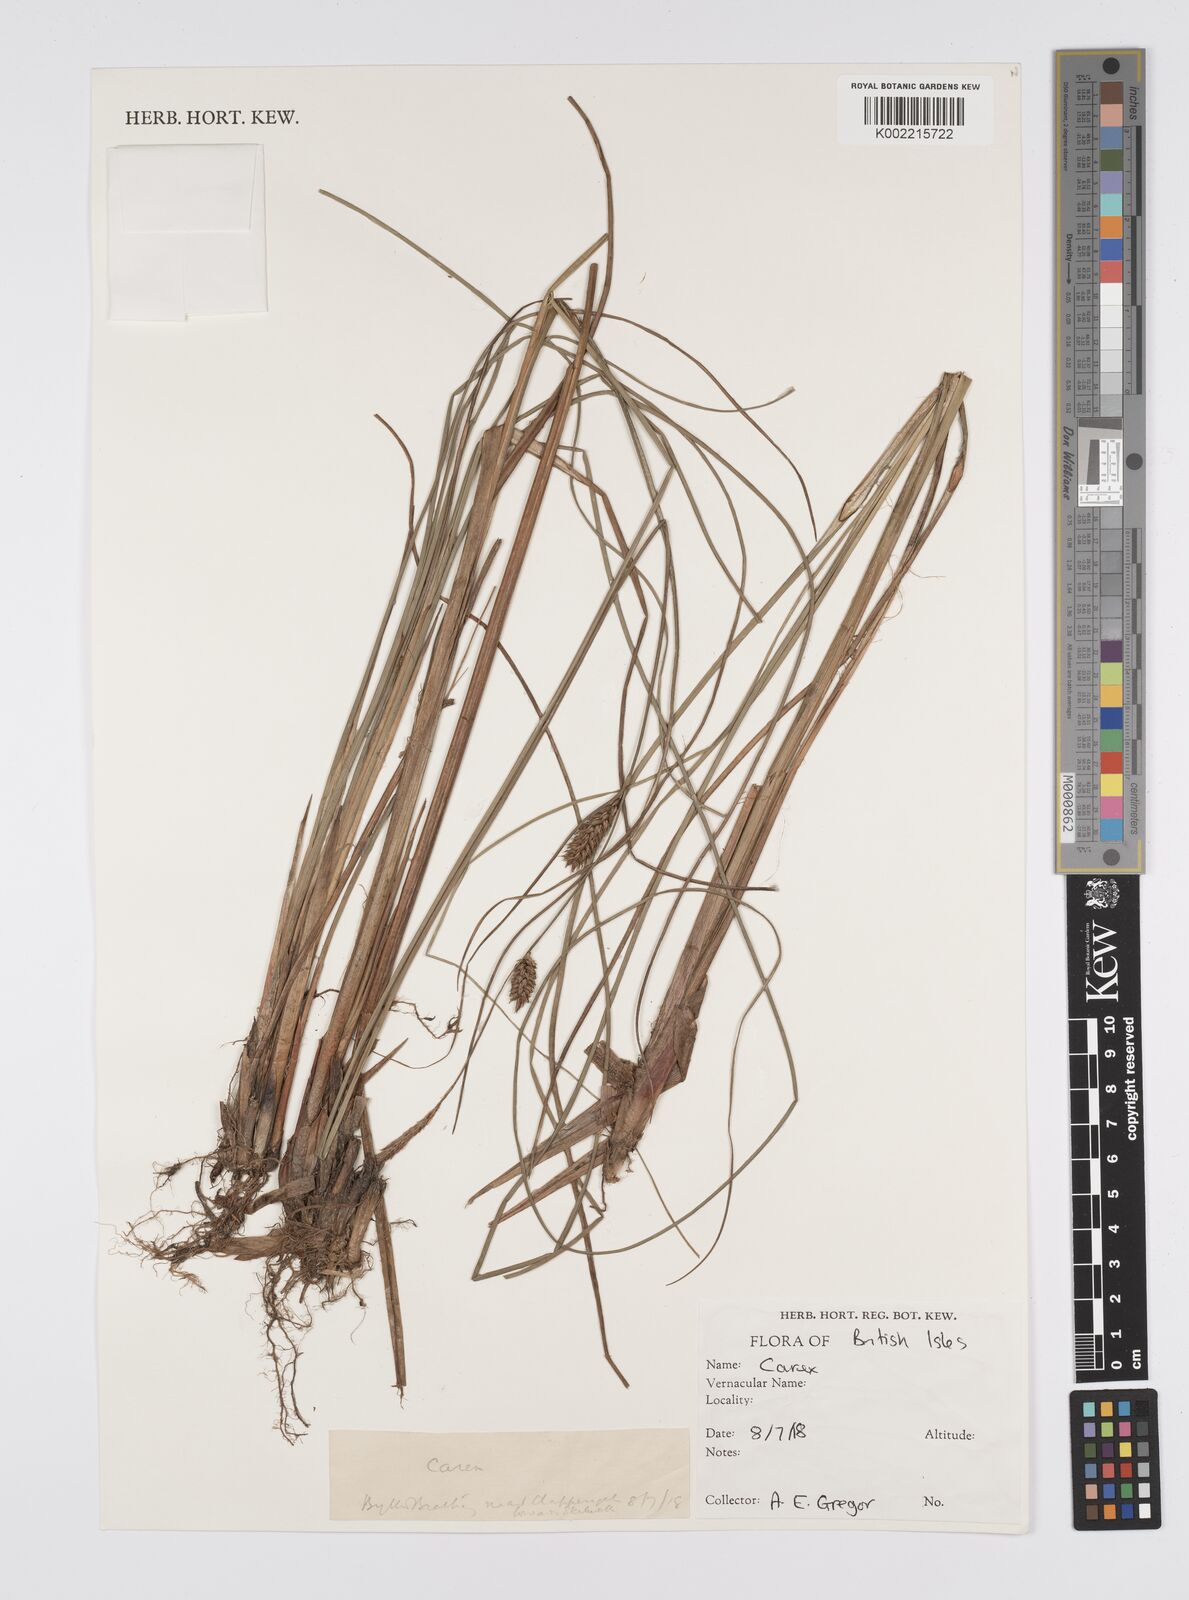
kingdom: Plantae
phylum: Tracheophyta
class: Liliopsida
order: Poales
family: Cyperaceae
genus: Carex
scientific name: Carex
